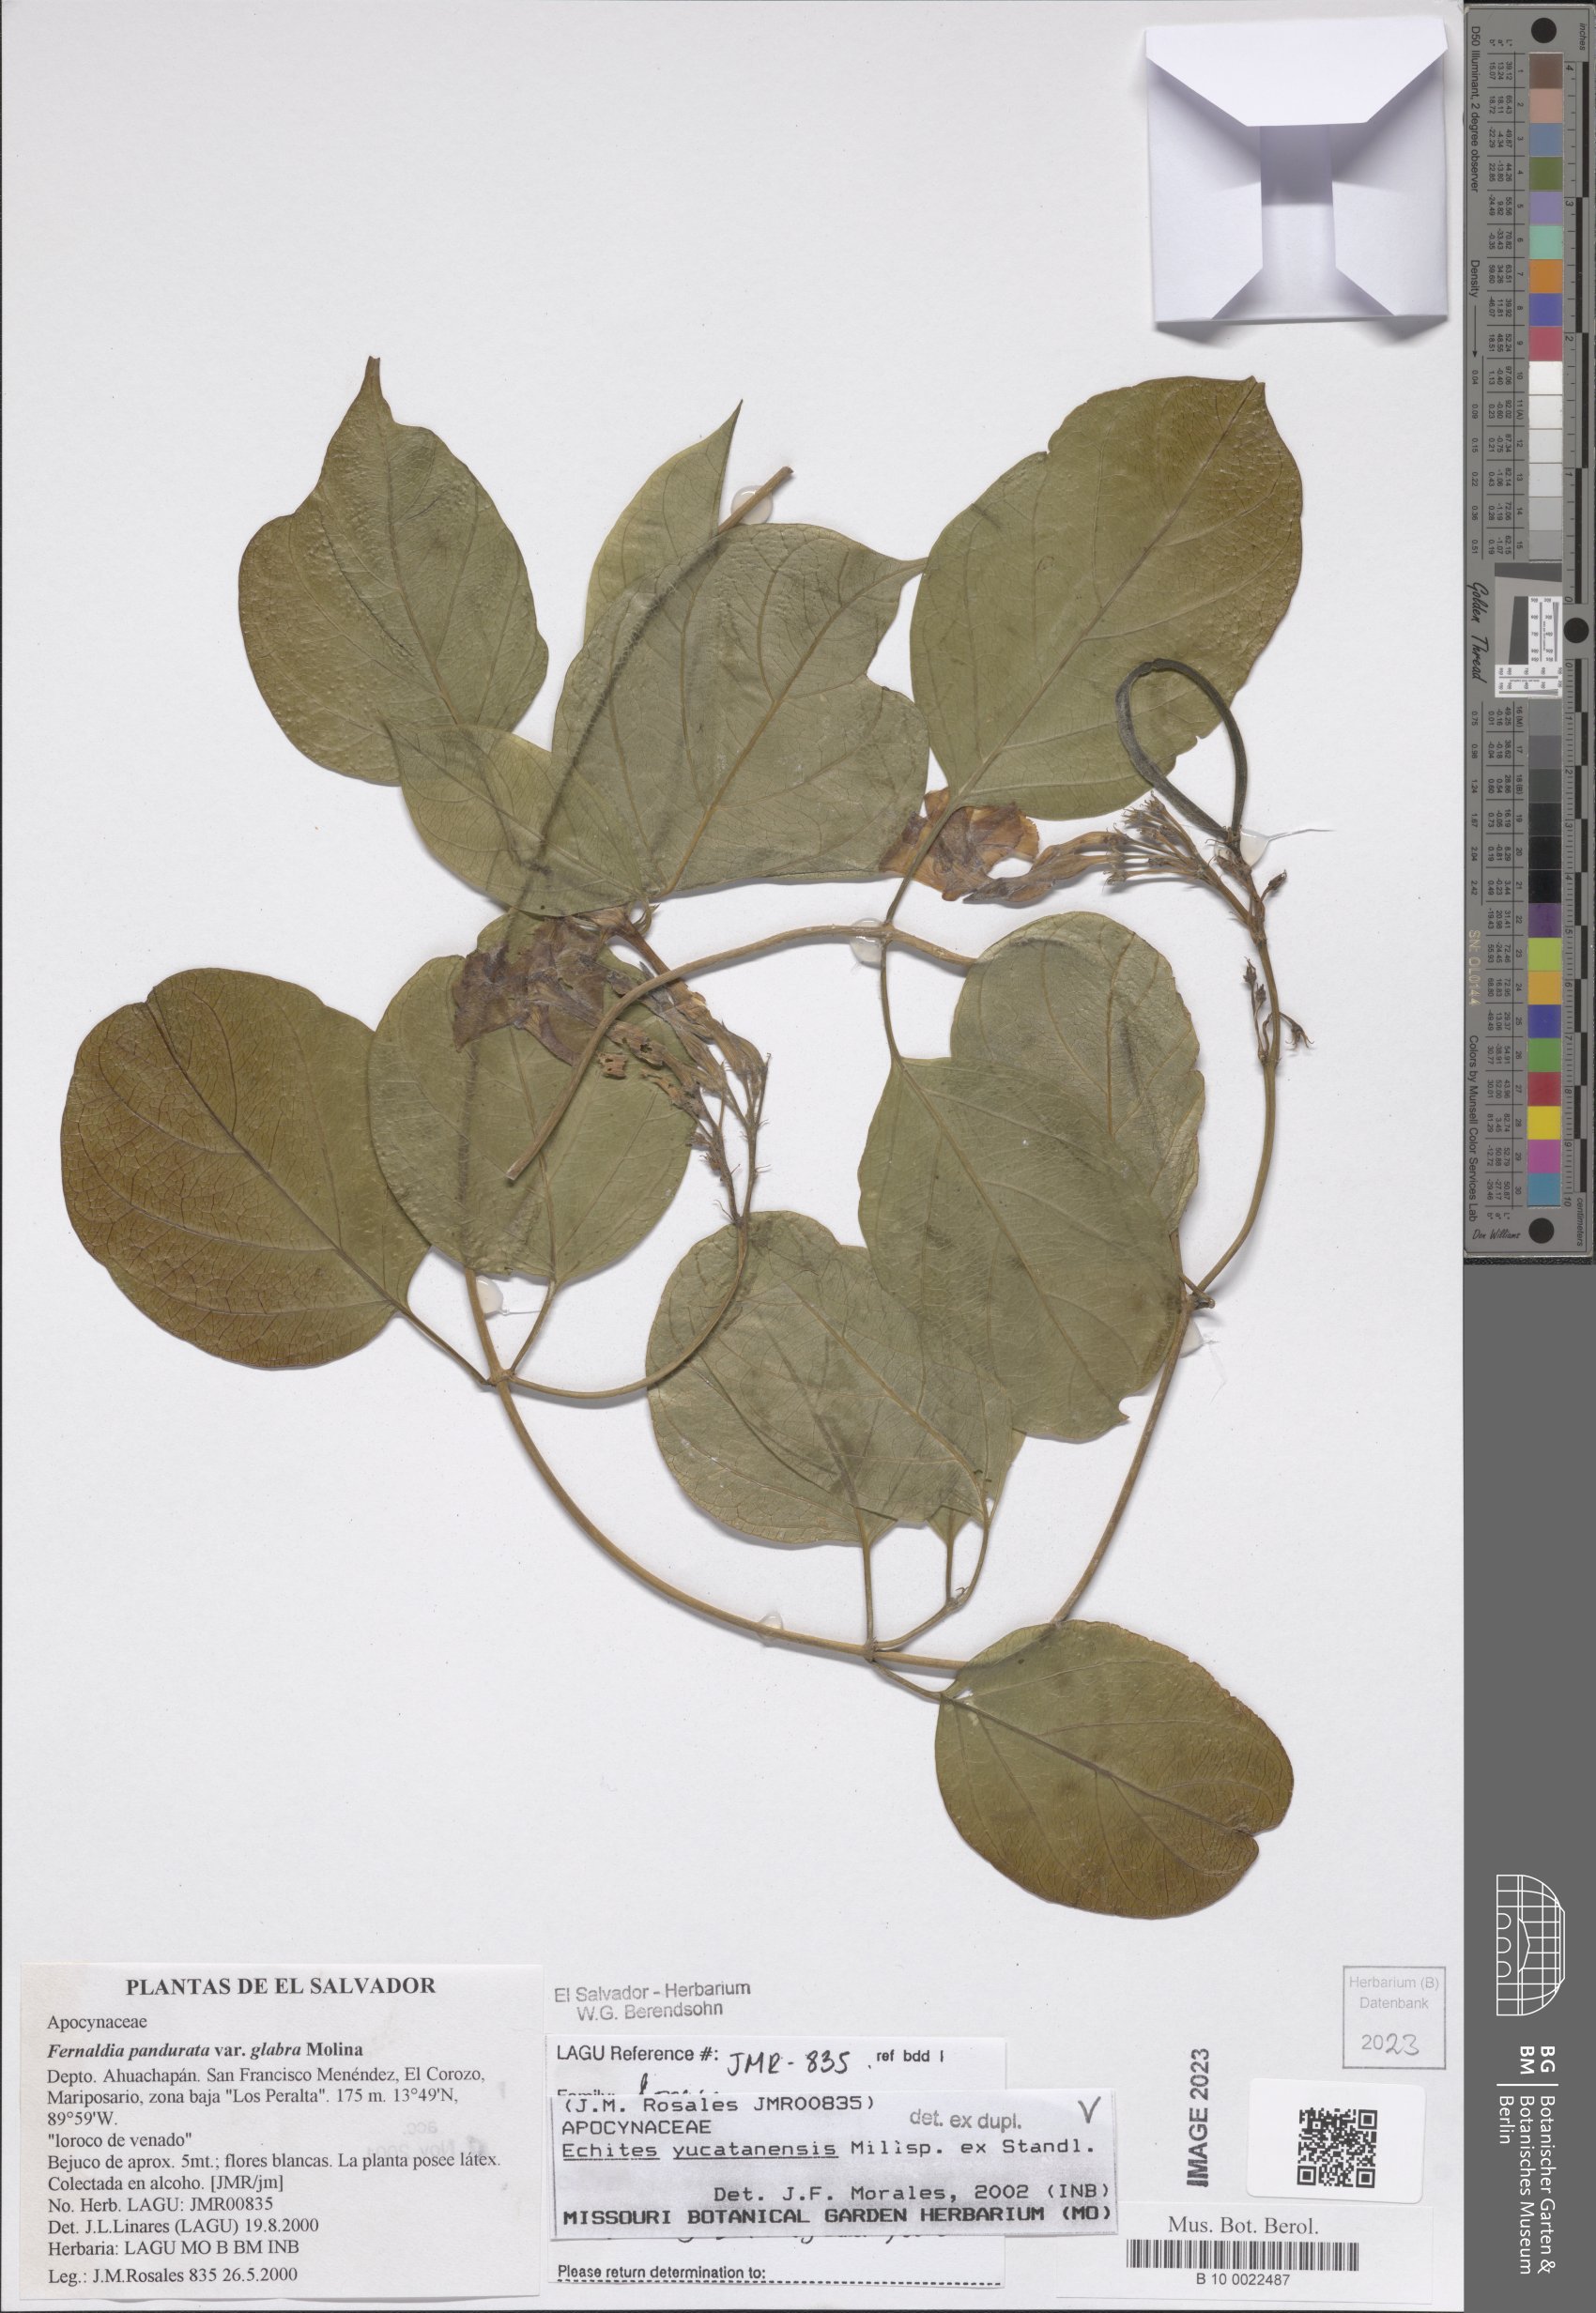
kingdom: Plantae
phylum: Tracheophyta
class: Magnoliopsida
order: Gentianales
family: Apocynaceae
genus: Echites
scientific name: Echites yucatanensis
